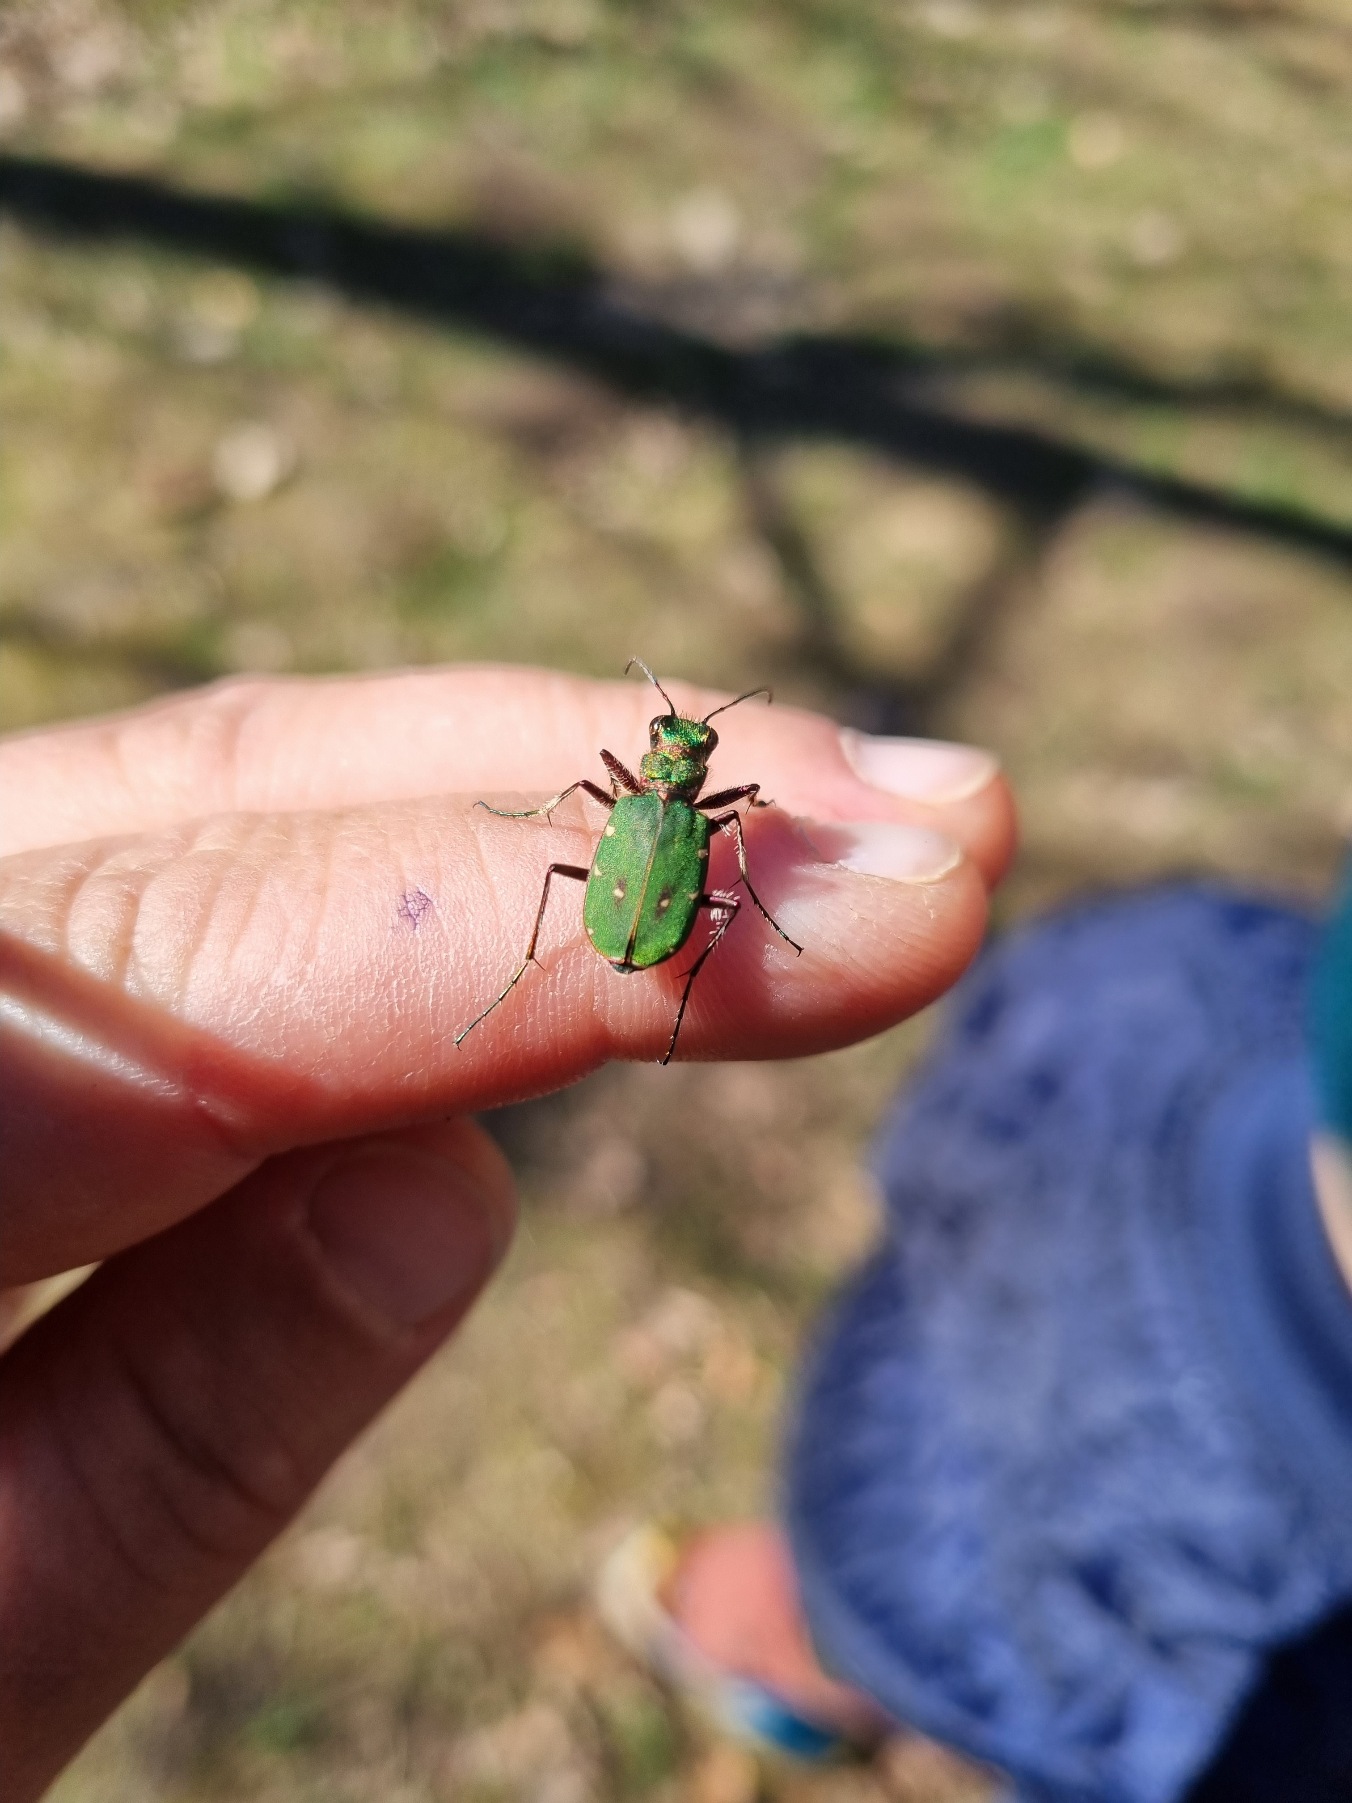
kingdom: Animalia
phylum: Arthropoda
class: Insecta
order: Coleoptera
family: Carabidae
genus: Cicindela
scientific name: Cicindela campestris
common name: Grøn sandspringer
